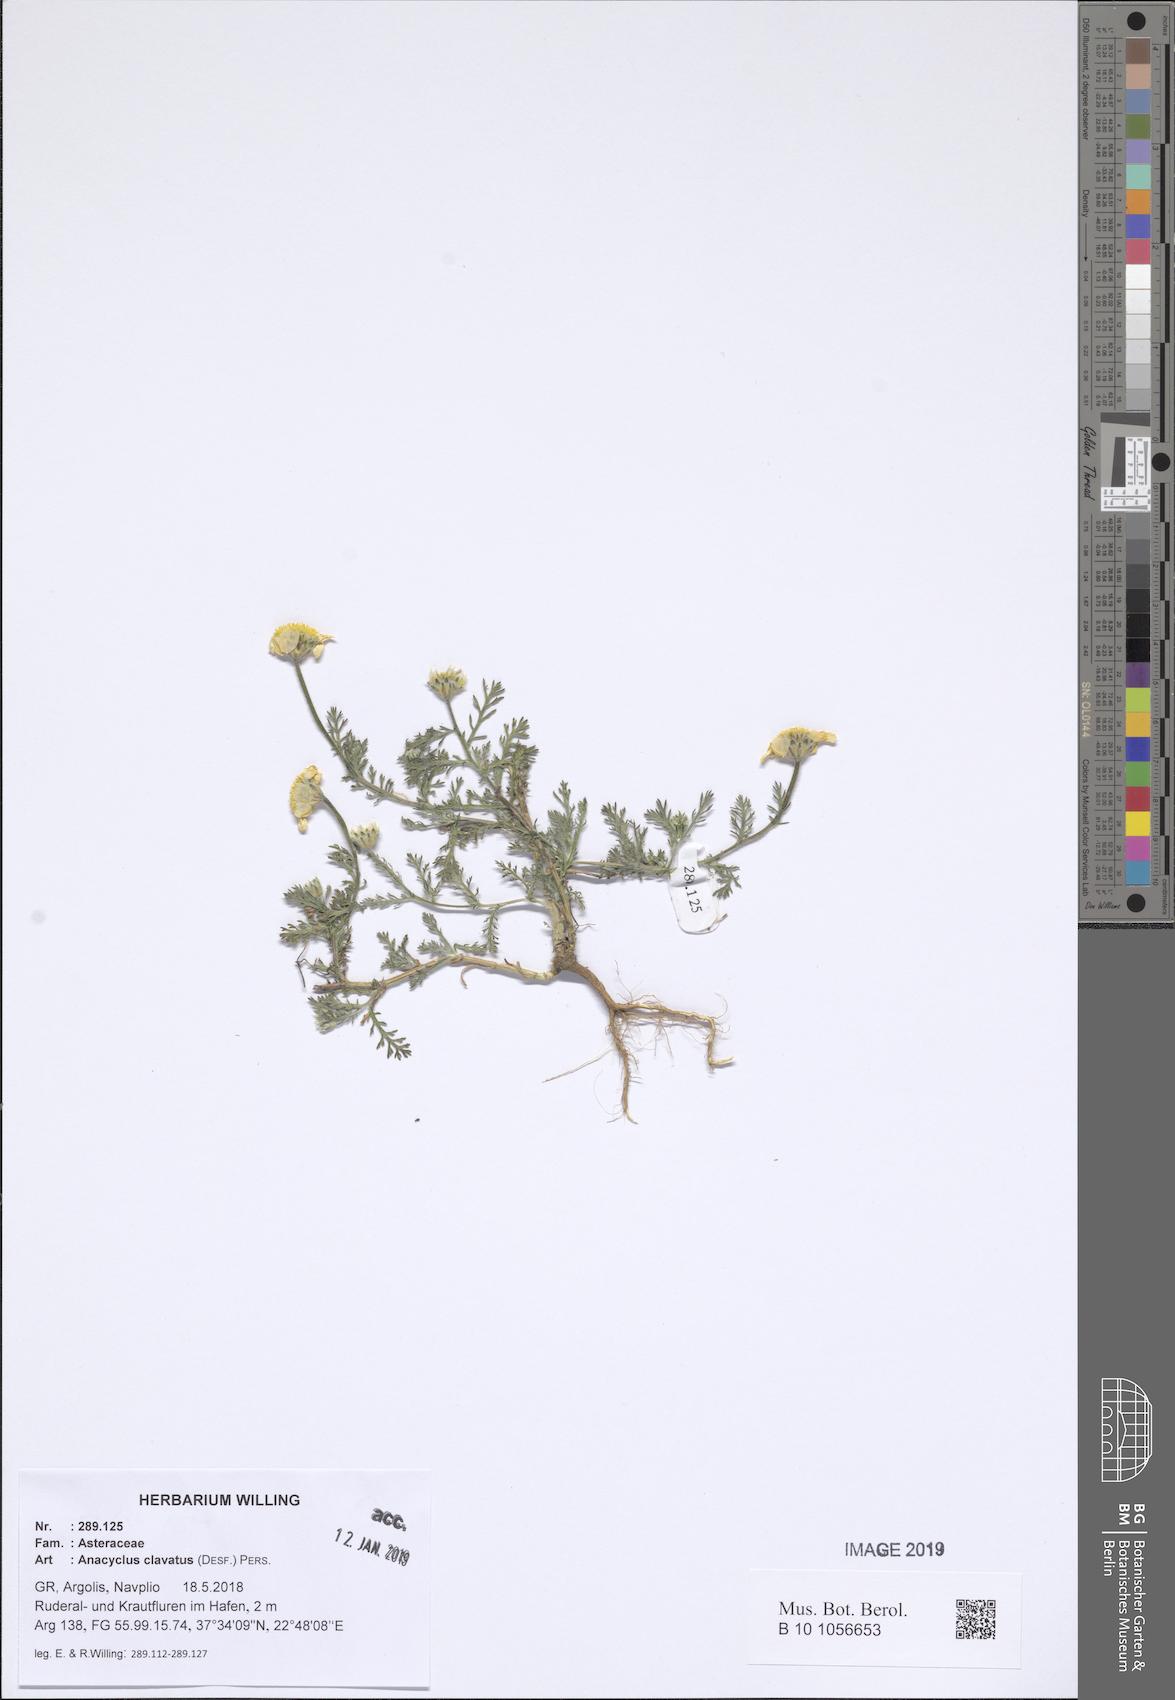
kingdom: Plantae
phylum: Tracheophyta
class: Magnoliopsida
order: Asterales
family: Asteraceae
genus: Anacyclus
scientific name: Anacyclus clavatus
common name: Whitebuttons
